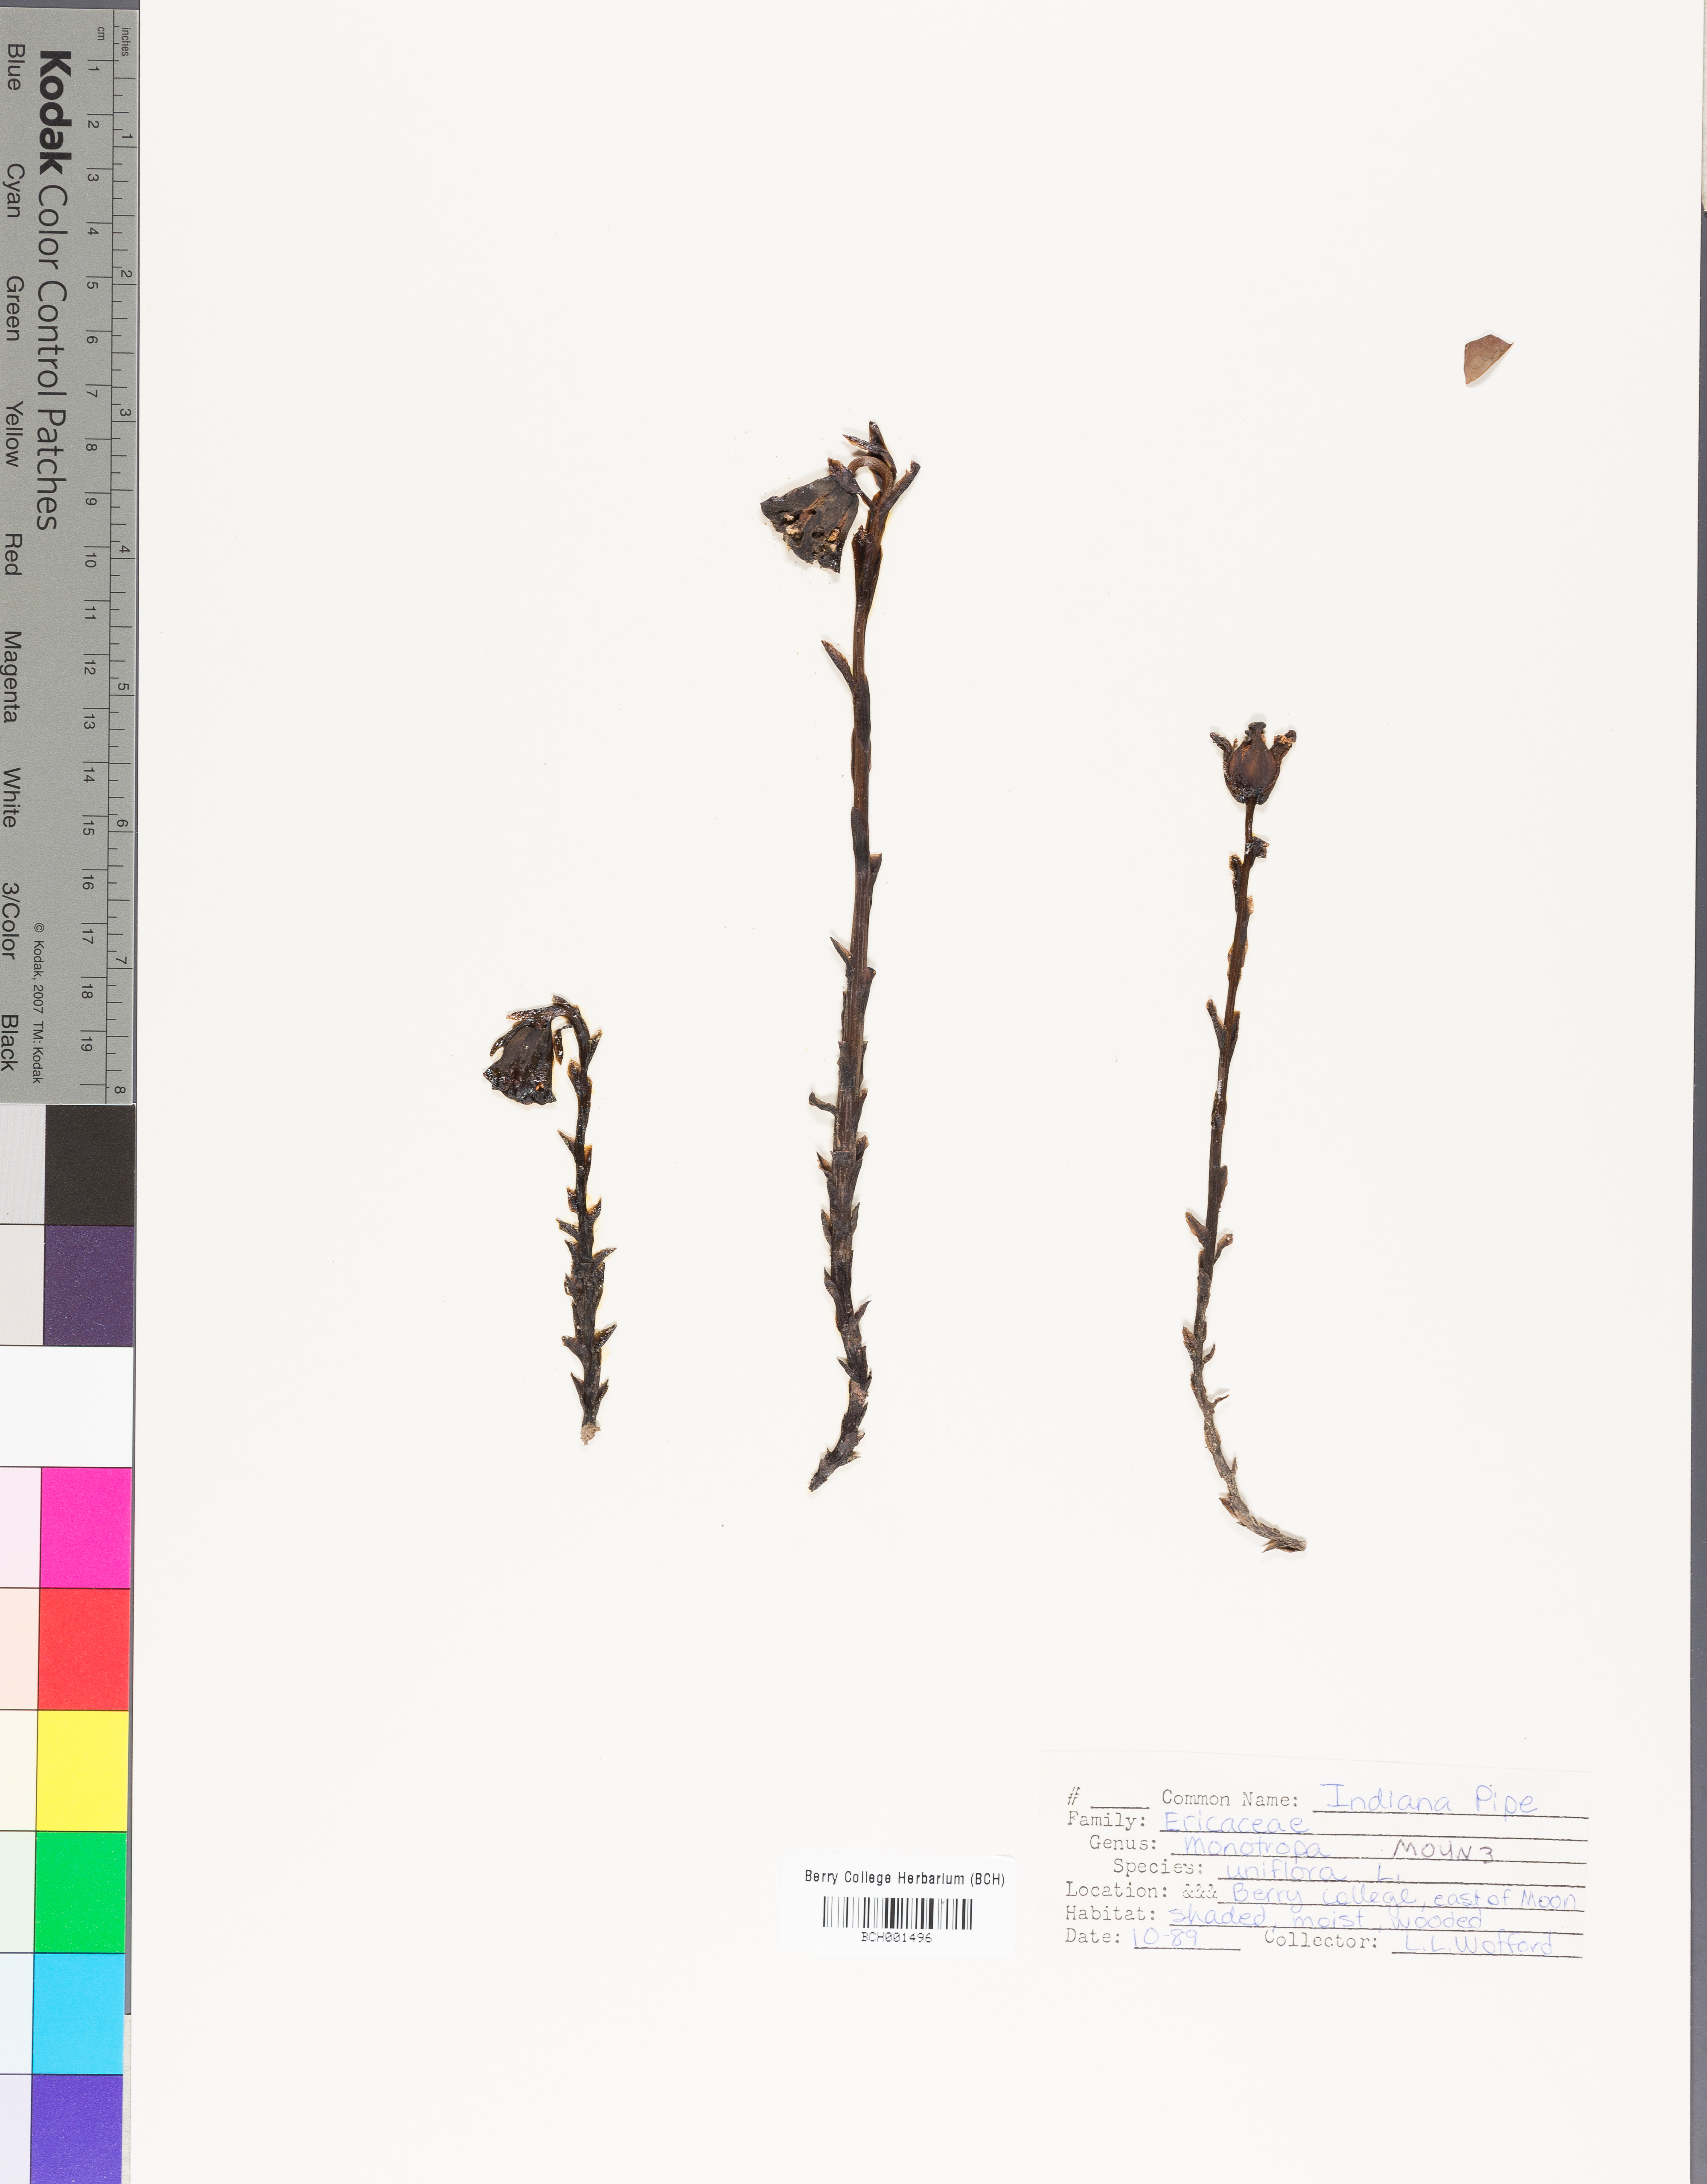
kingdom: Plantae
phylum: Tracheophyta
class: Magnoliopsida
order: Ericales
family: Ericaceae
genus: Monotropa
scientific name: Monotropa uniflora
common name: Convulsion root
